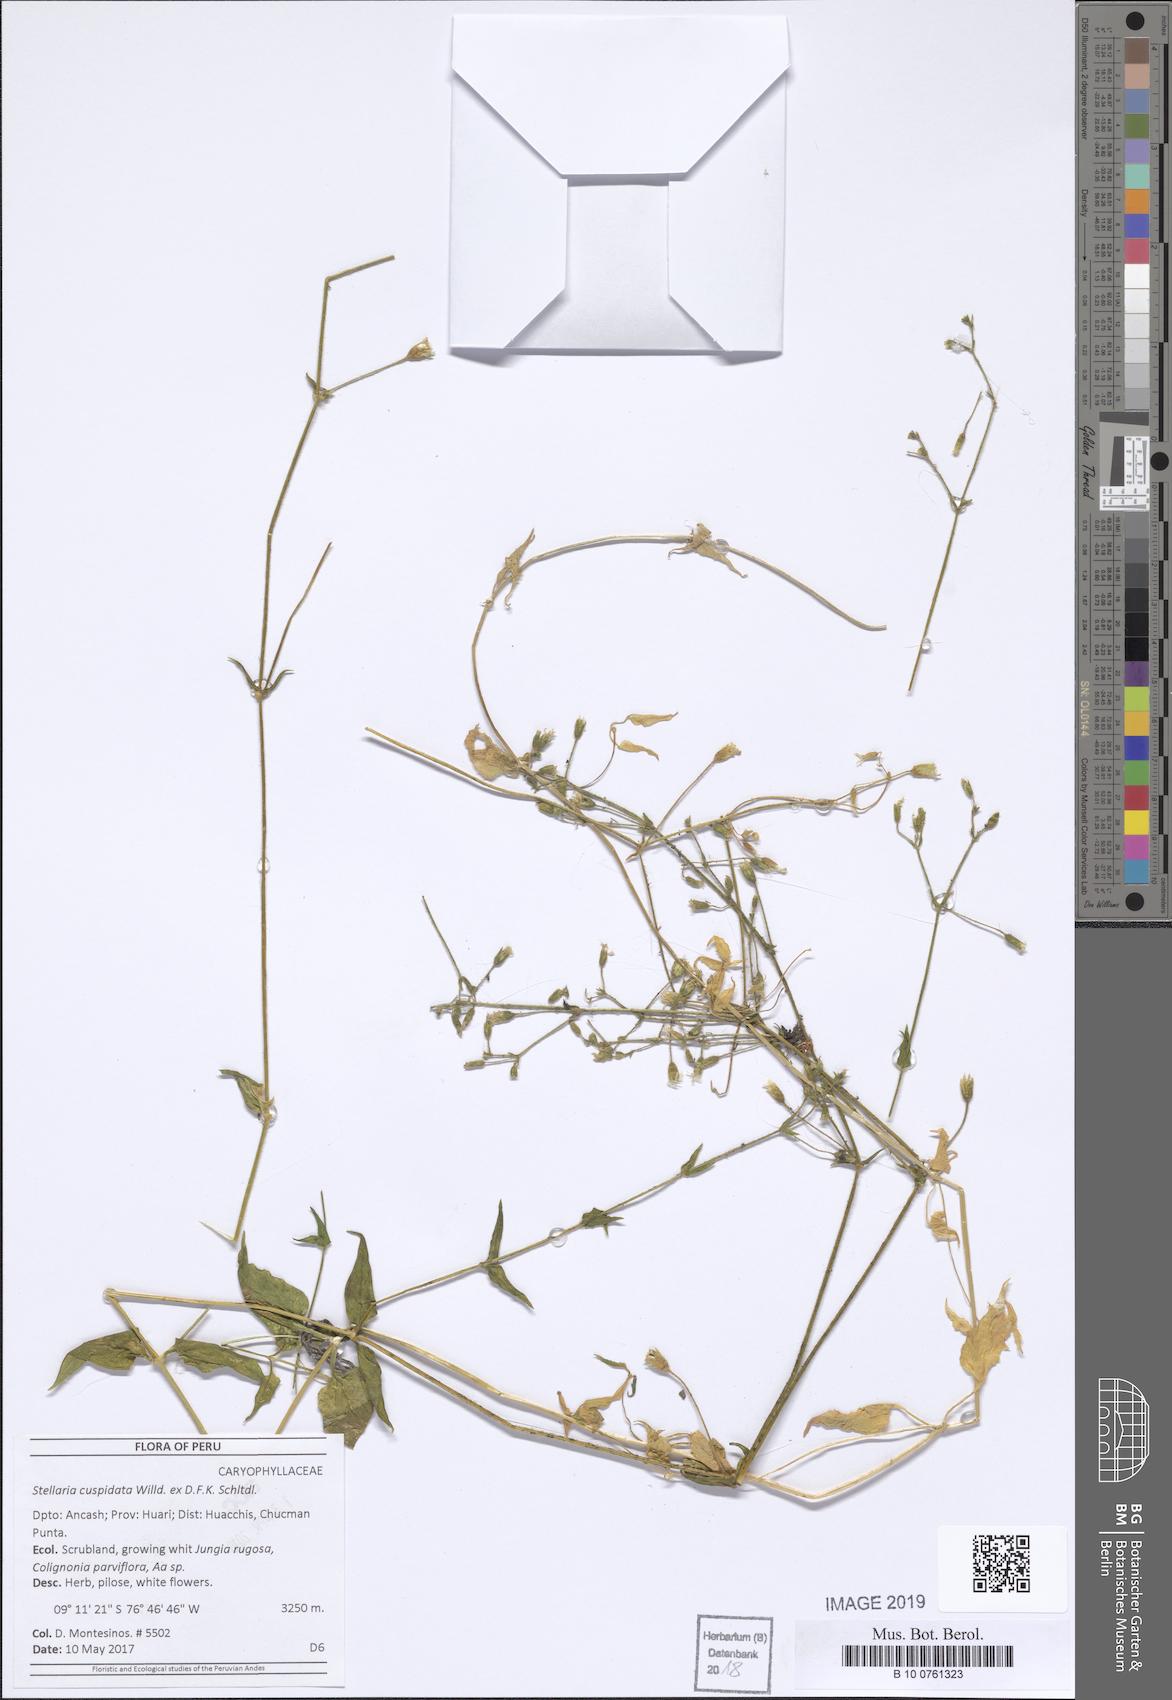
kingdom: Plantae
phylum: Tracheophyta
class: Magnoliopsida
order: Caryophyllales
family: Caryophyllaceae
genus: Stellaria
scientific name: Stellaria cuspidata
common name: Mexican chickweed
